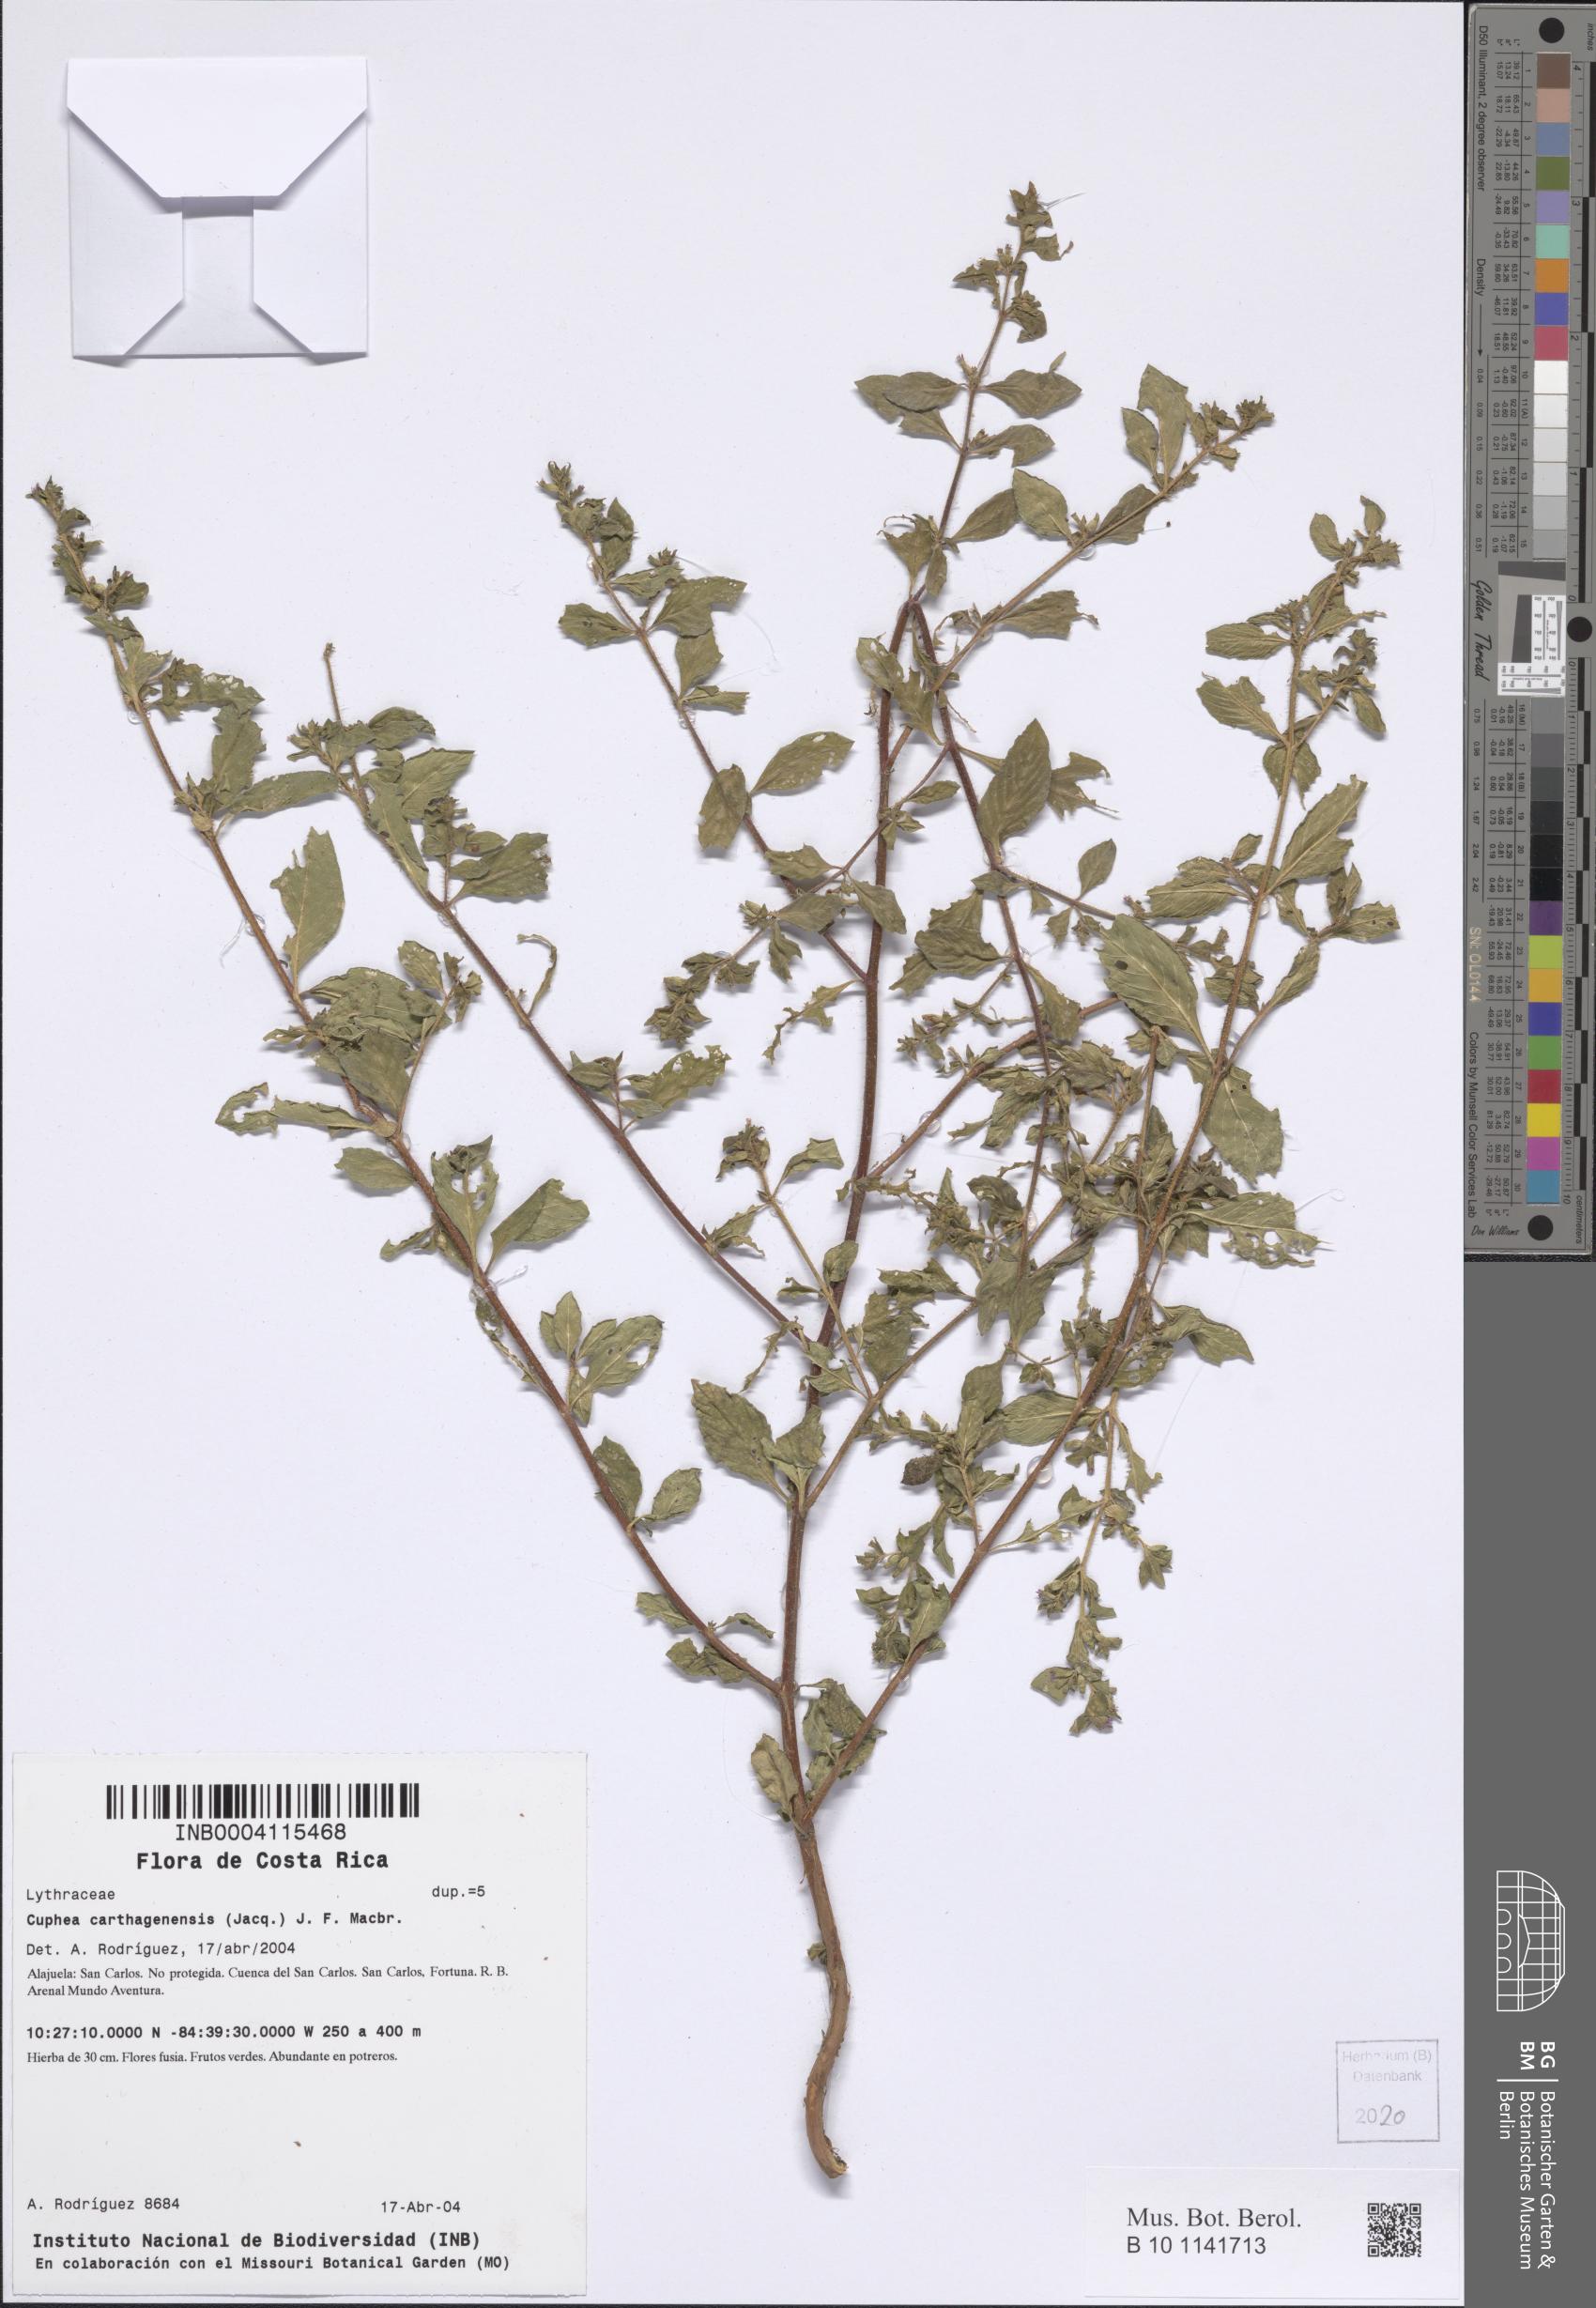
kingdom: Plantae
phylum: Tracheophyta
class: Magnoliopsida
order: Myrtales
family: Lythraceae
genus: Cuphea
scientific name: Cuphea carthagenensis
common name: Colombian waxweed
